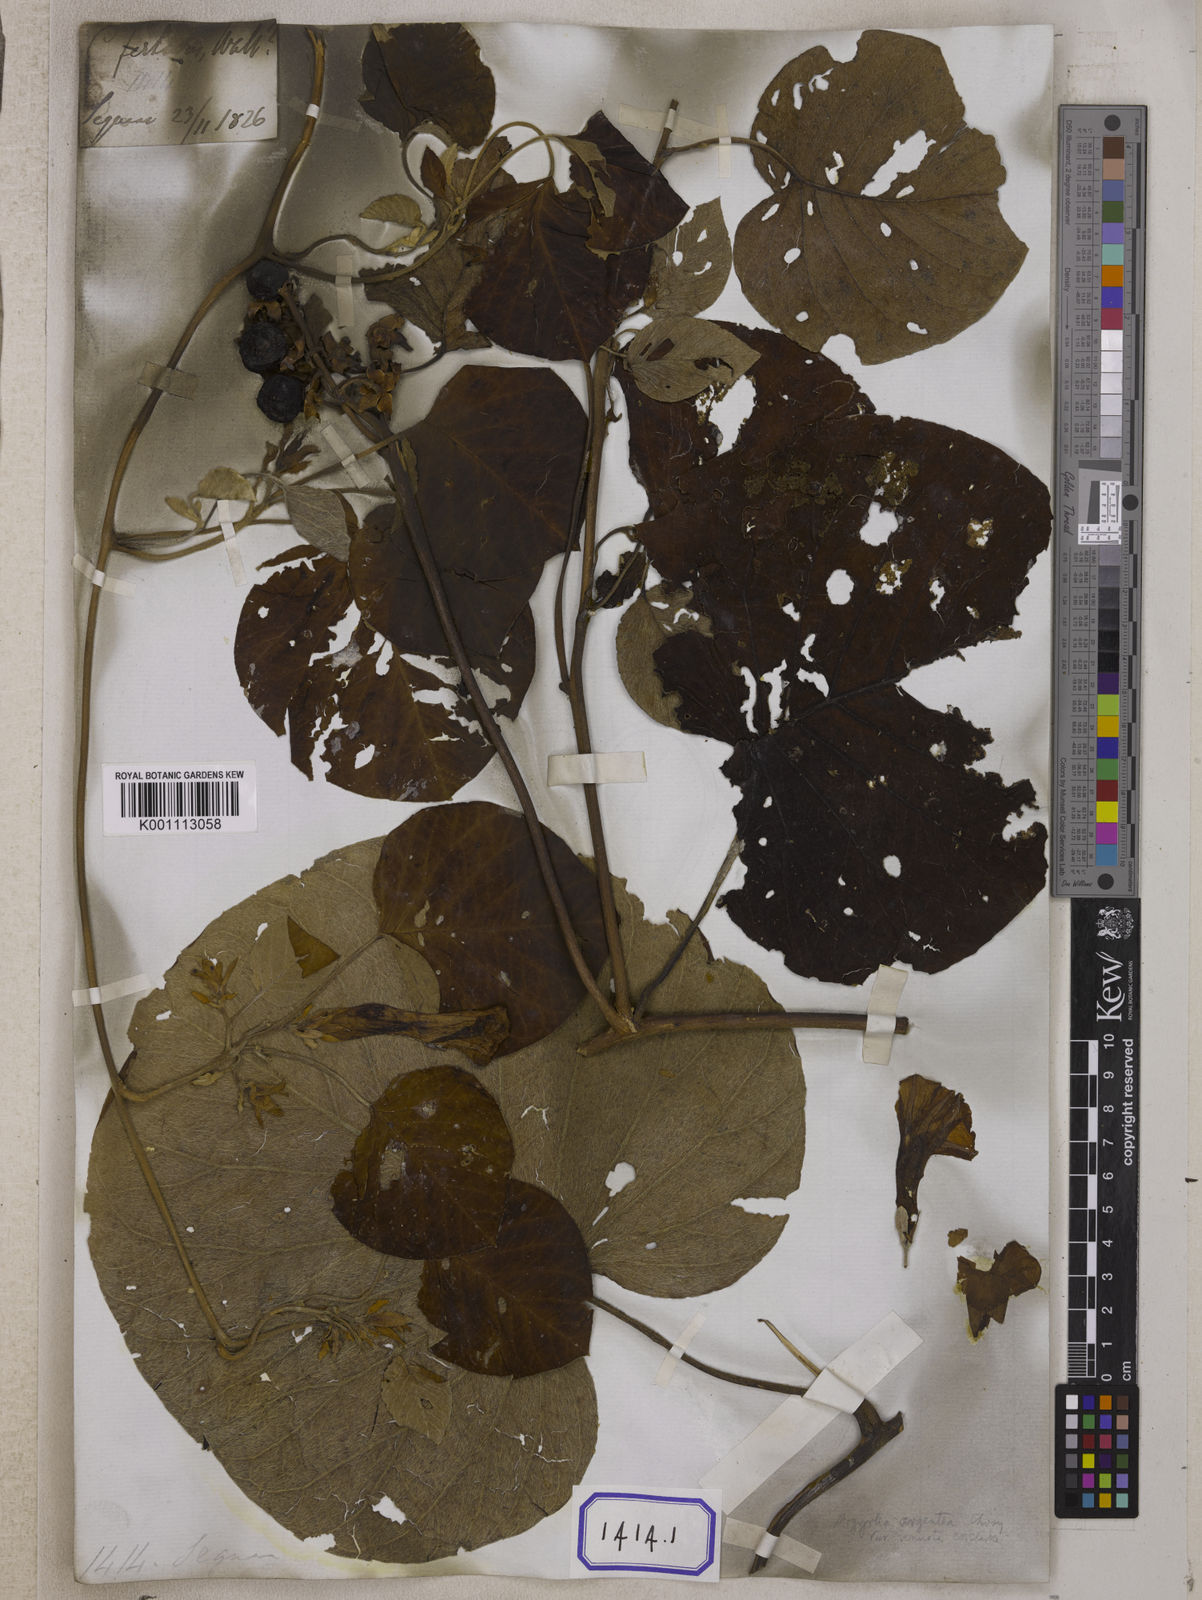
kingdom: Plantae
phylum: Tracheophyta
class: Magnoliopsida
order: Solanales
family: Convolvulaceae
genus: Argyreia
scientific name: Argyreia argentea
